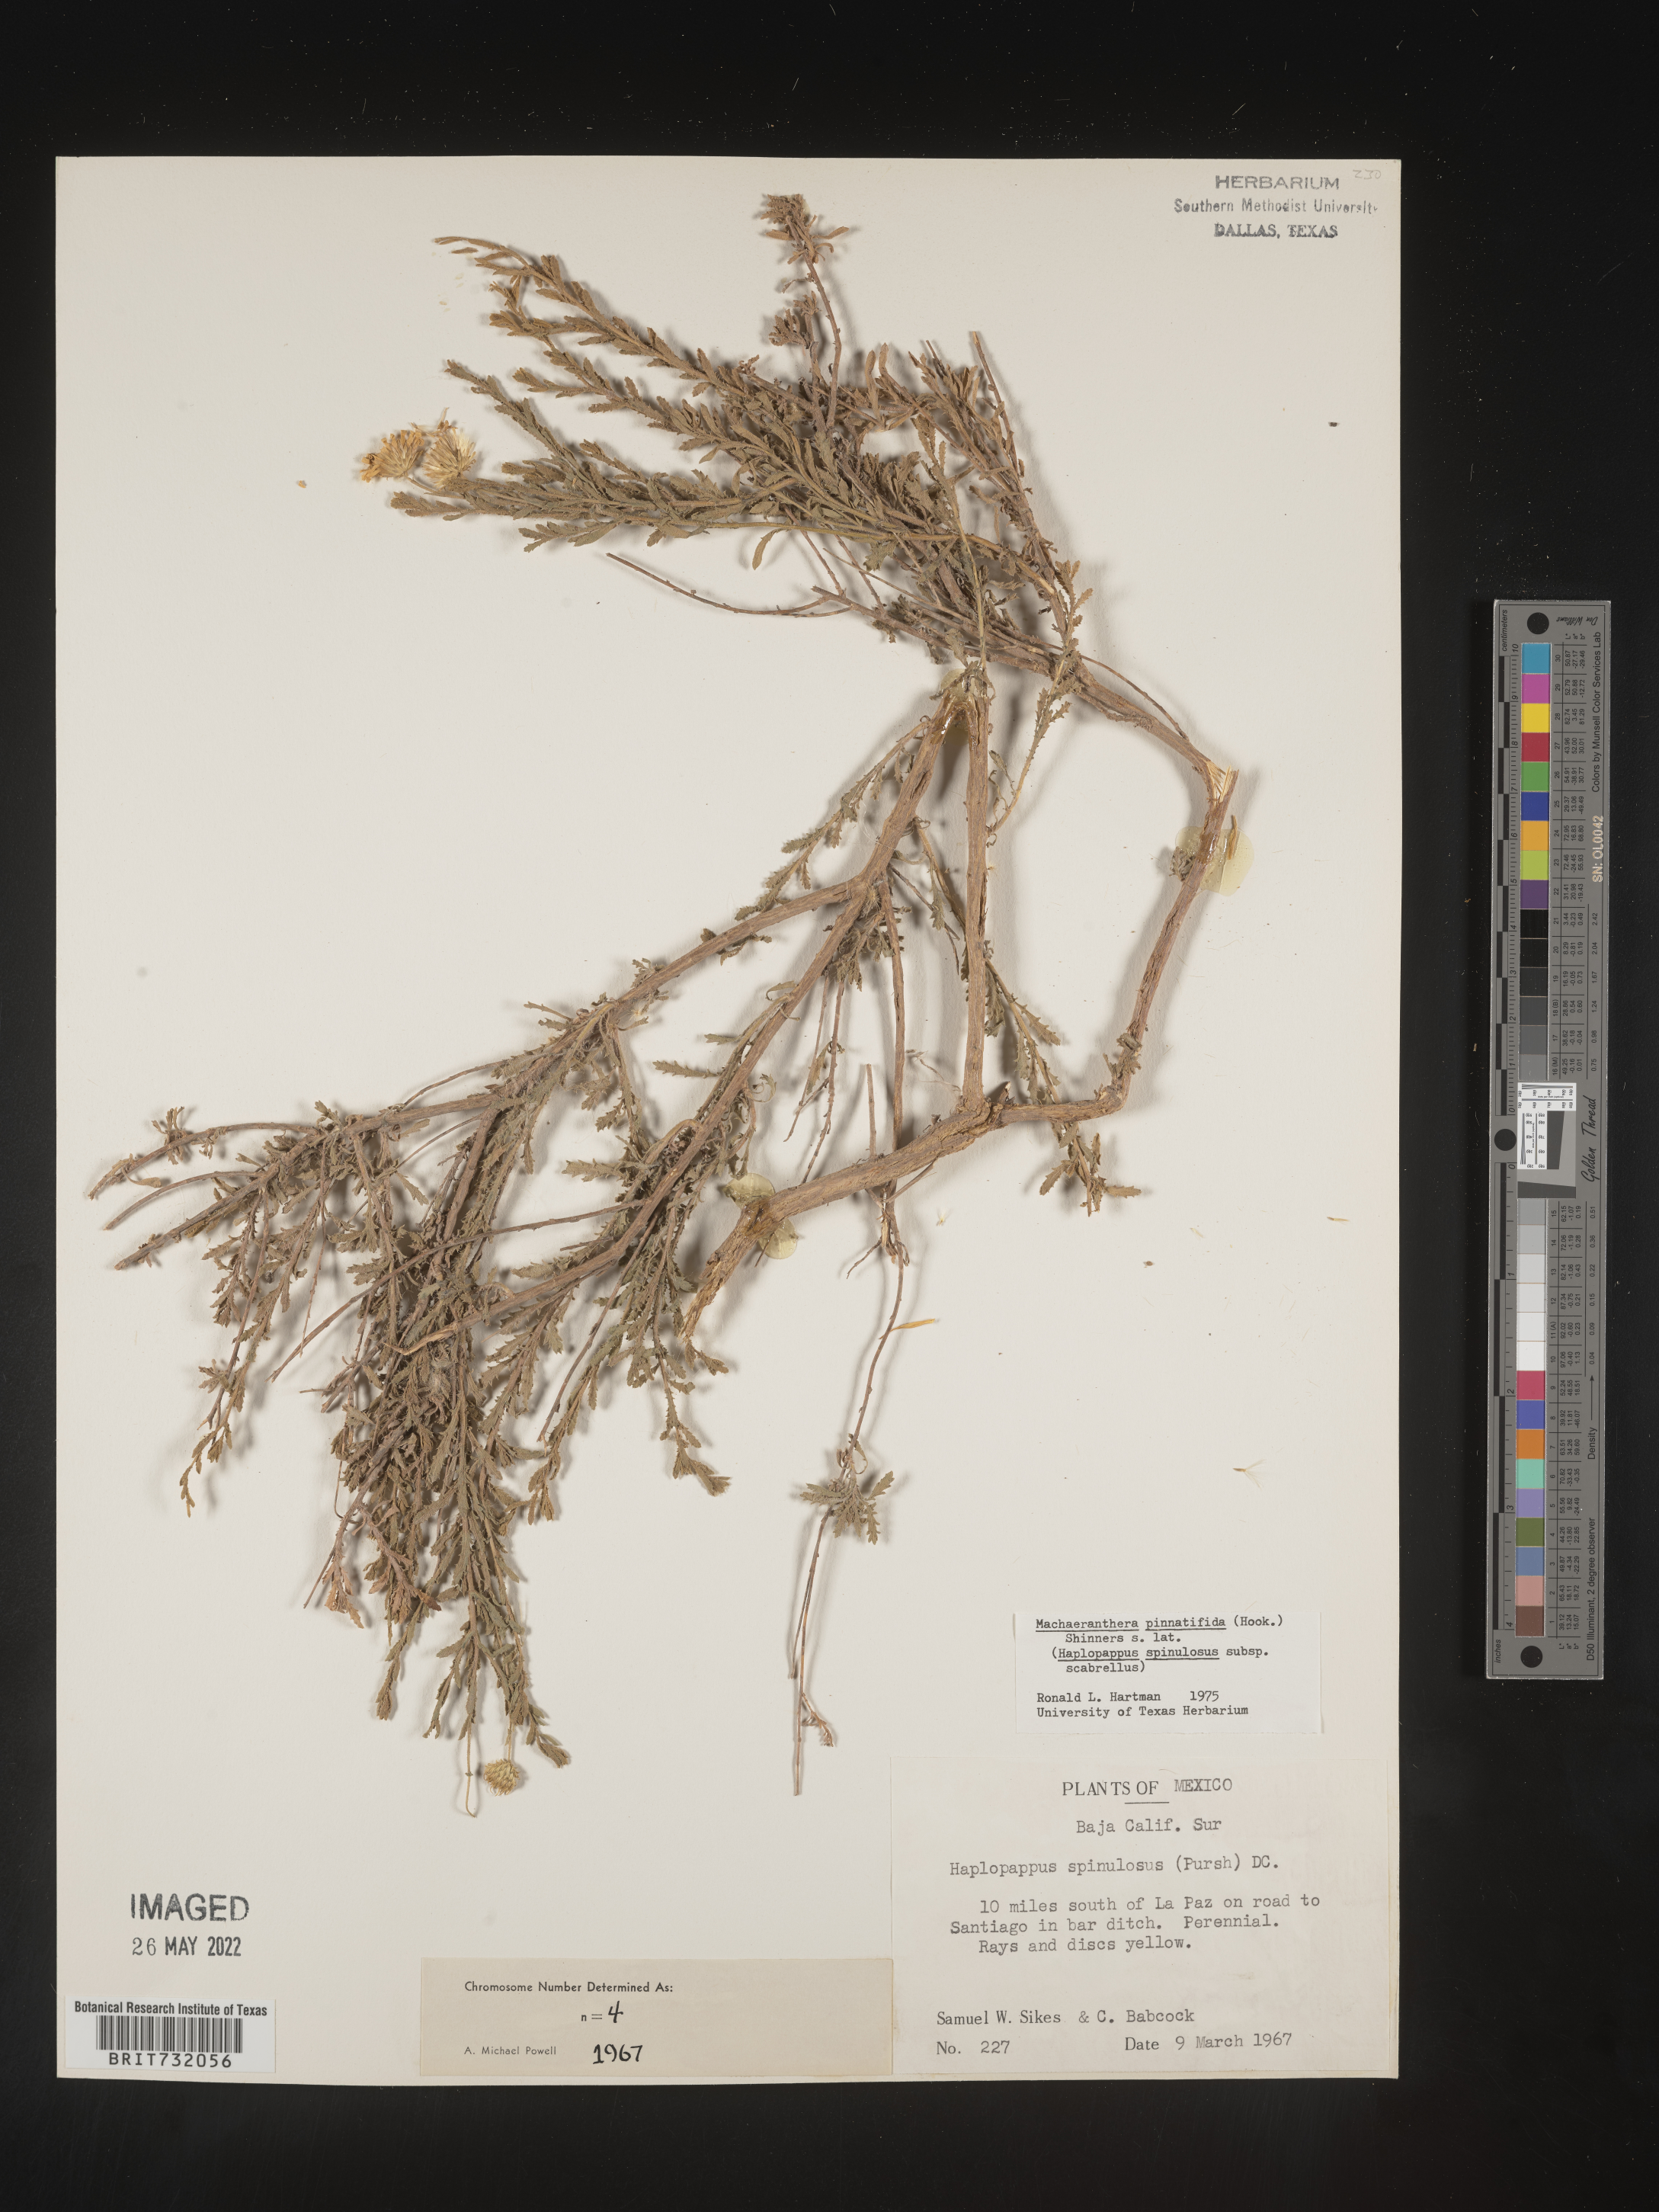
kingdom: Plantae
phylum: Tracheophyta
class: Magnoliopsida
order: Asterales
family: Asteraceae
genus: Xanthisma
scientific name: Xanthisma spinulosum
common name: Spiny goldenweed
